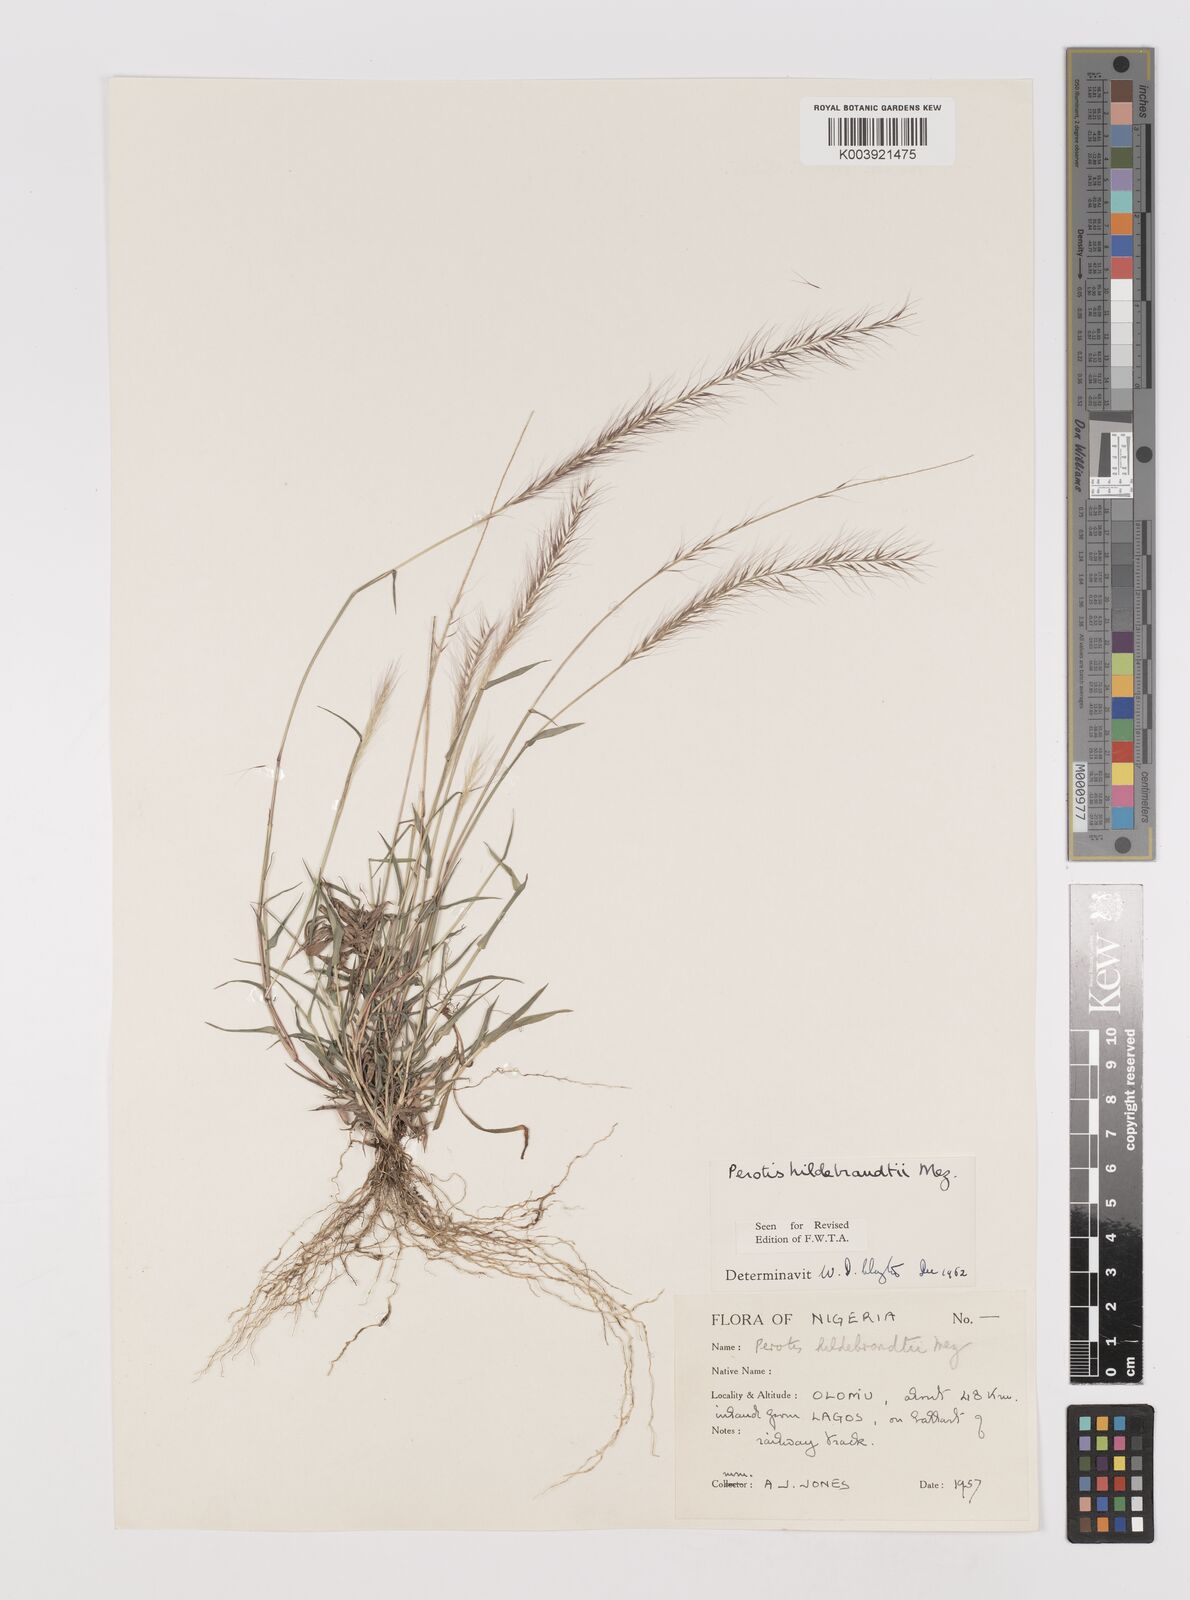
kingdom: Plantae
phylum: Tracheophyta
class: Liliopsida
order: Poales
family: Poaceae
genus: Perotis
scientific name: Perotis hildebrandtii
